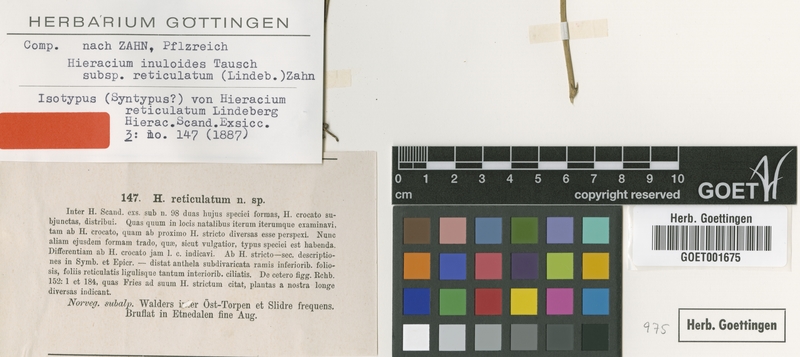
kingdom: Plantae
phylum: Tracheophyta
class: Magnoliopsida
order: Asterales
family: Asteraceae
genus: Hieracium
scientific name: Hieracium reticulatum
